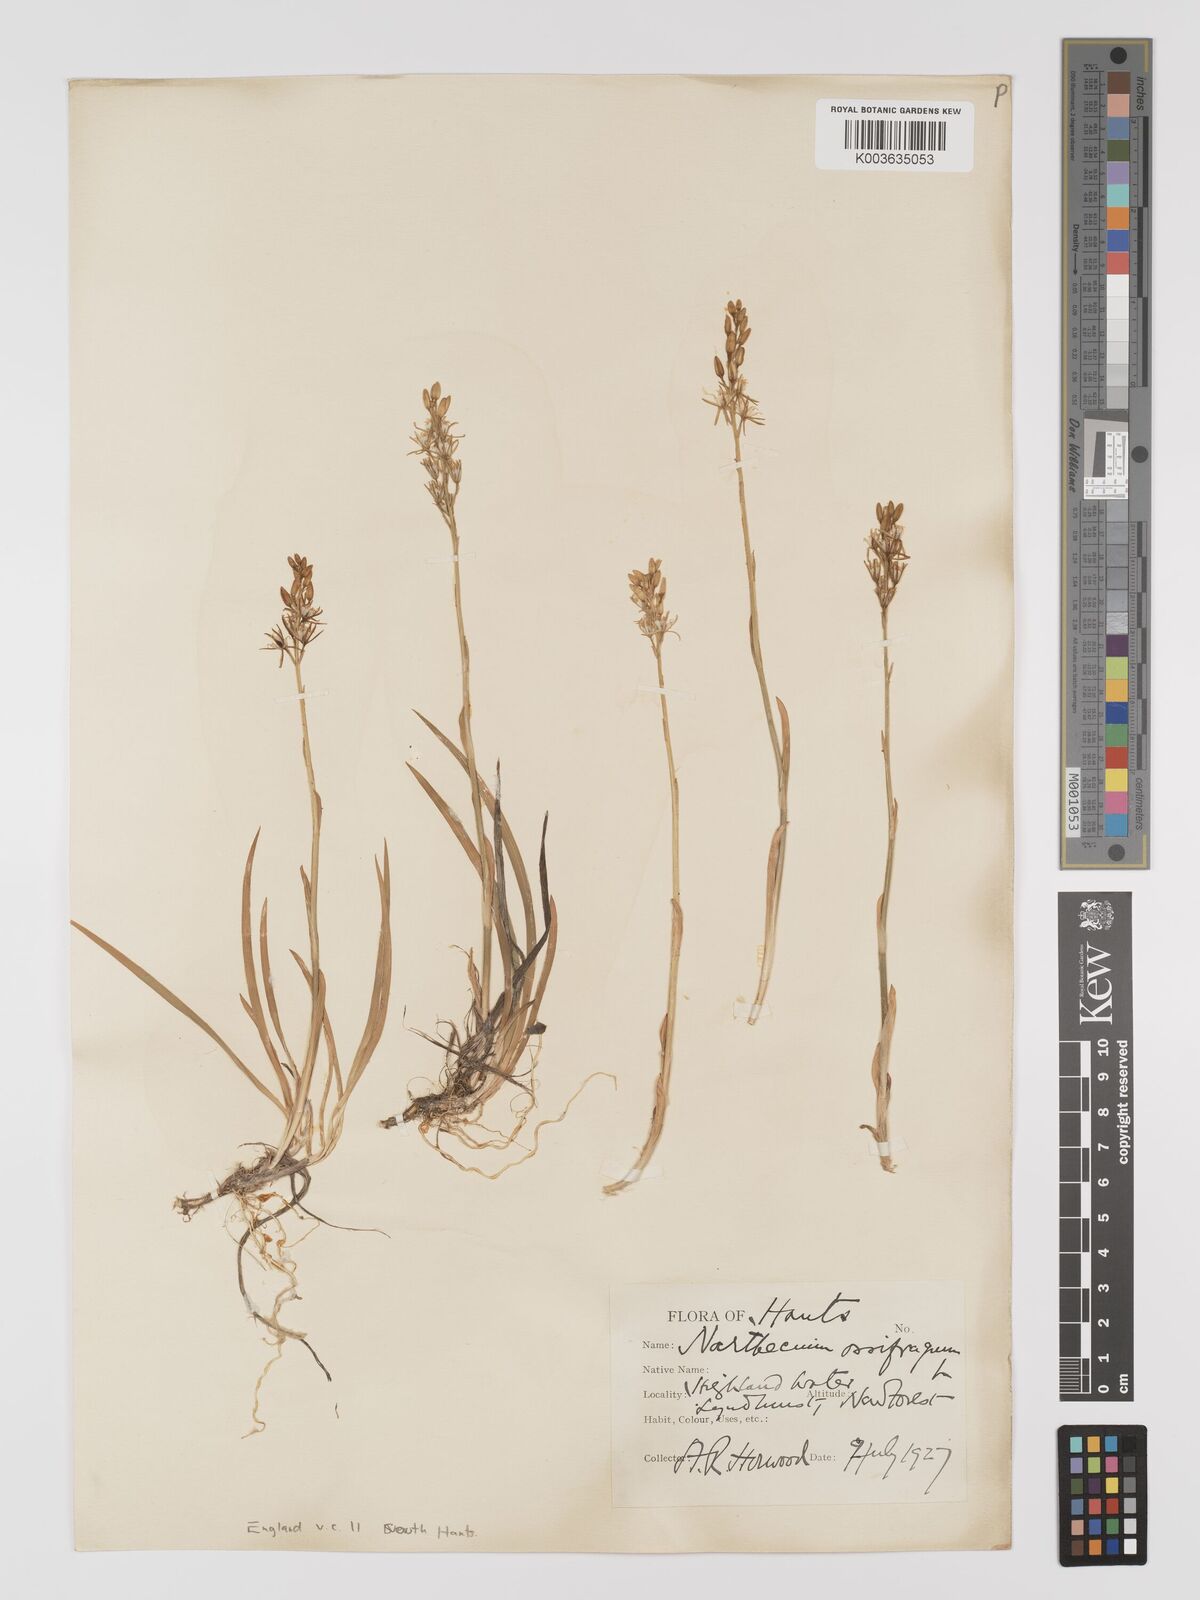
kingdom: Plantae
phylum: Tracheophyta
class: Liliopsida
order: Dioscoreales
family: Nartheciaceae
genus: Narthecium
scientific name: Narthecium
